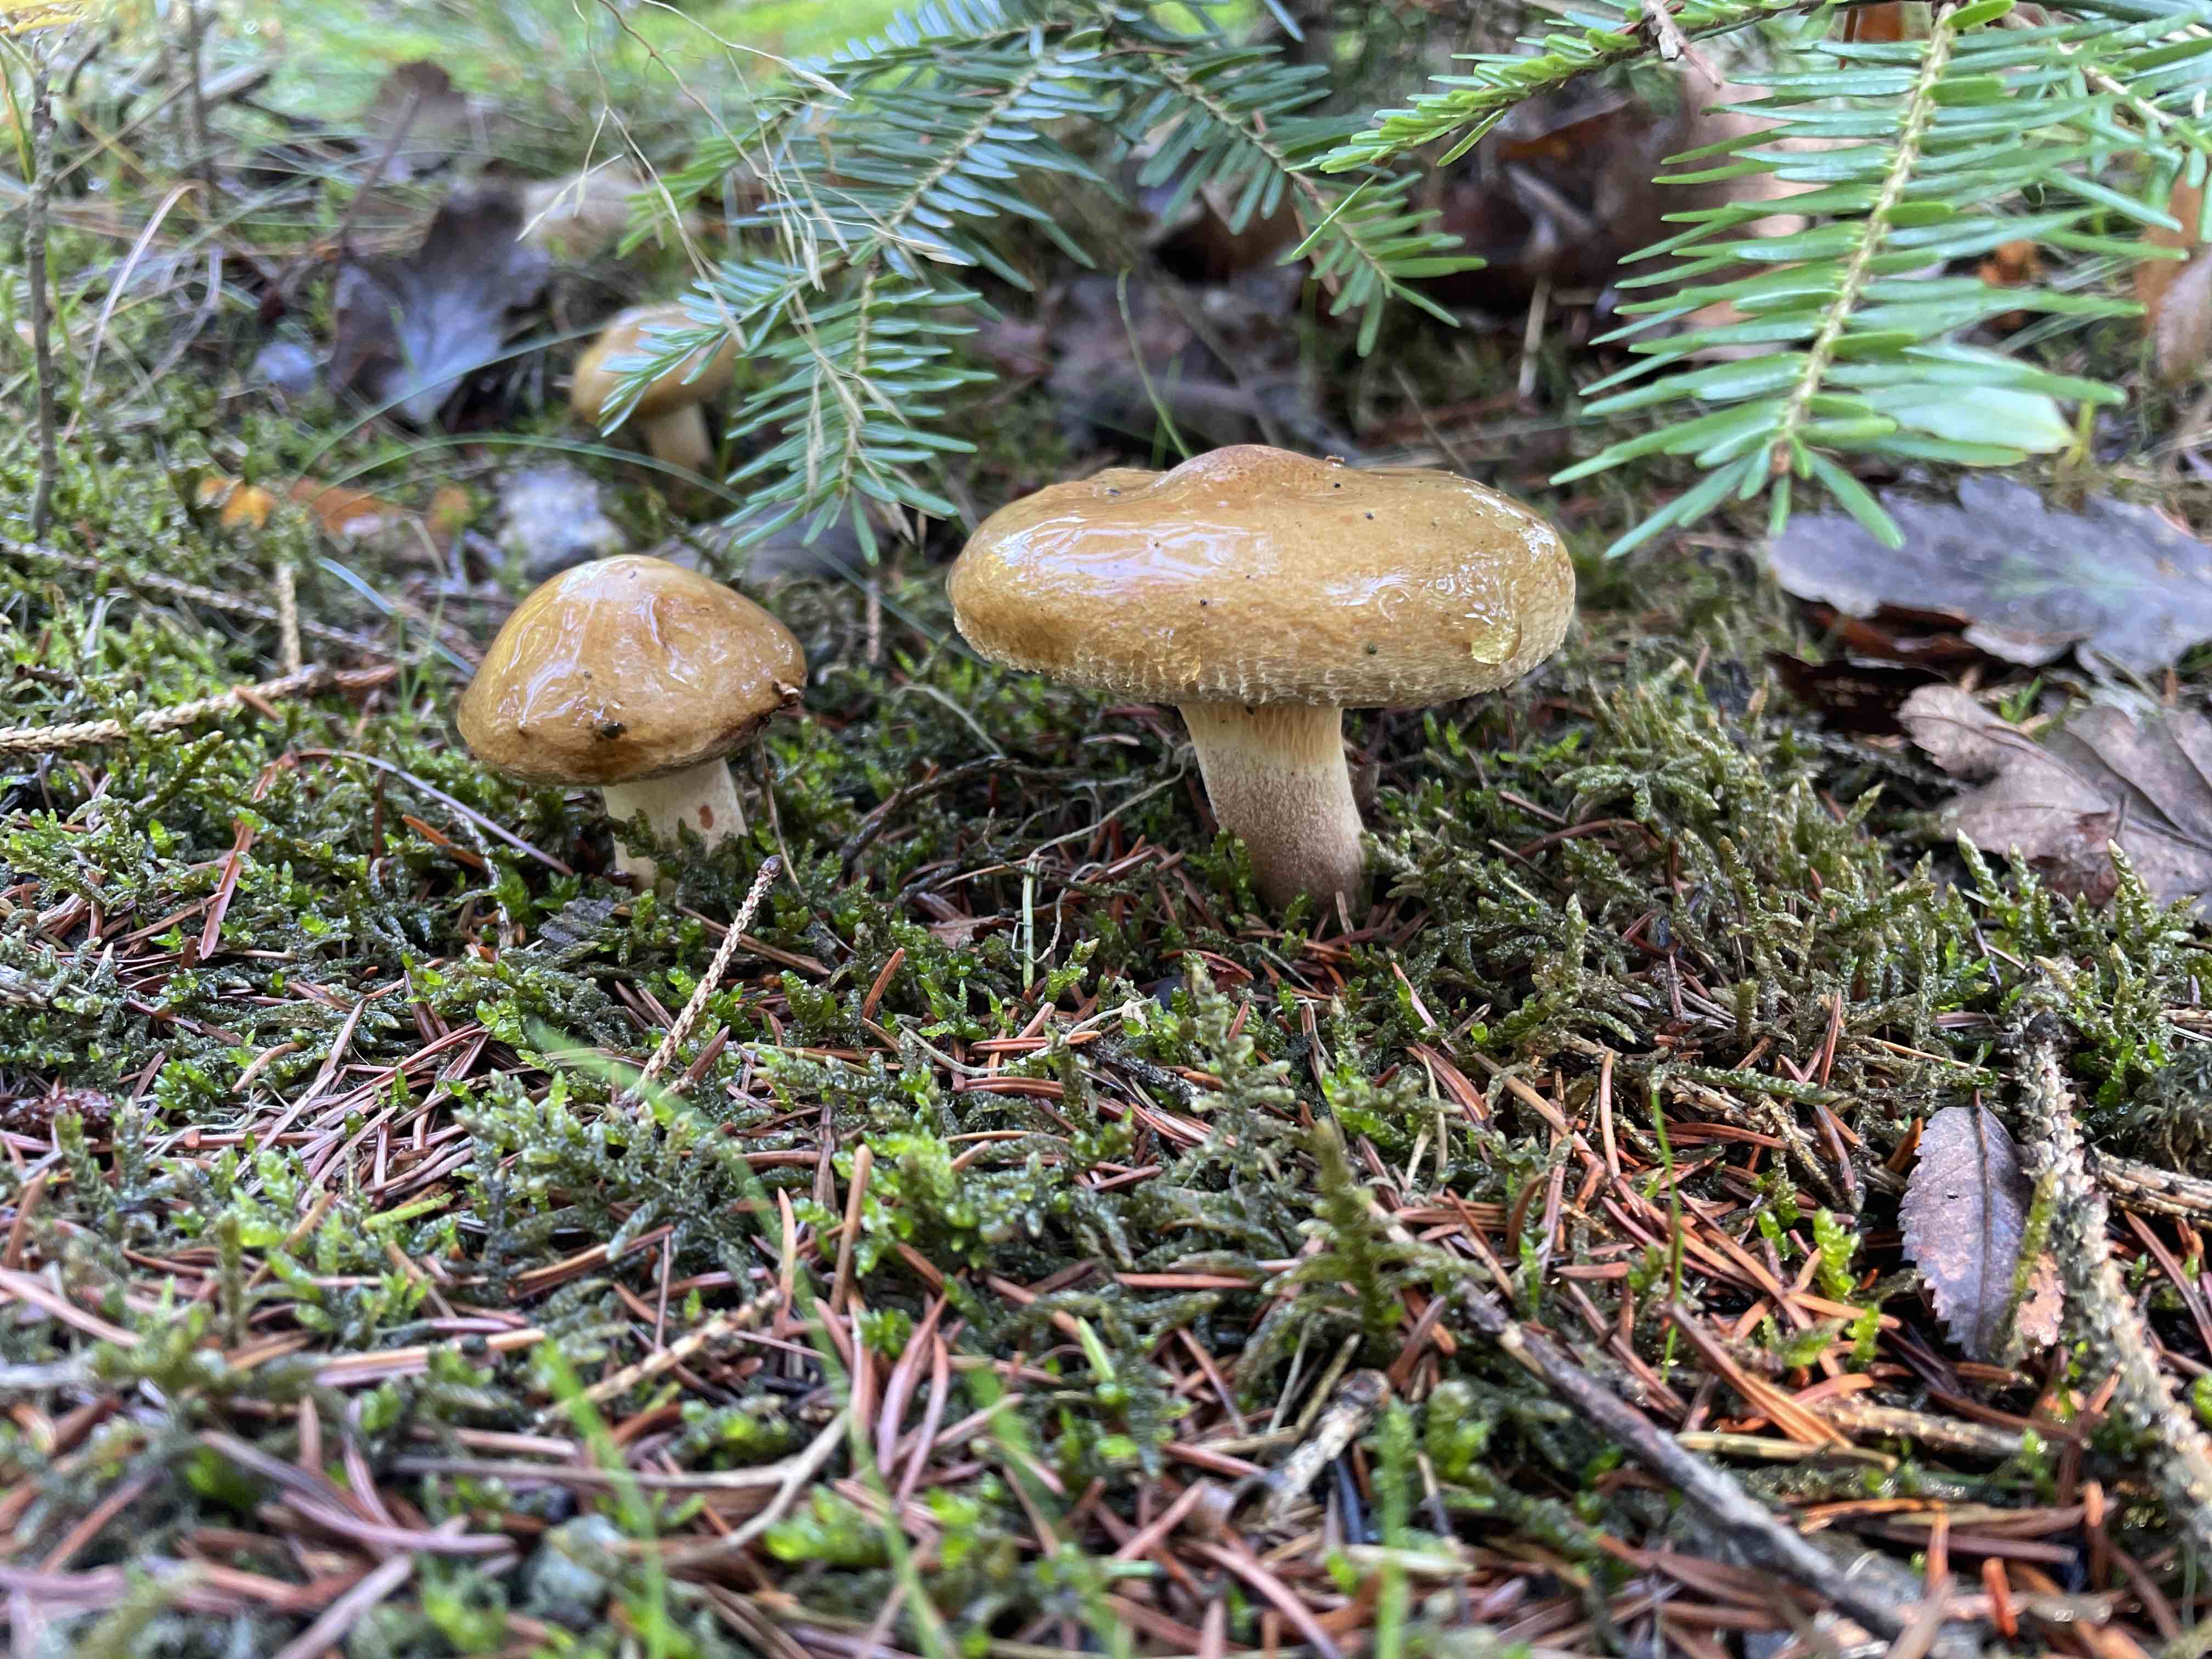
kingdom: Fungi
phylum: Basidiomycota
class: Agaricomycetes
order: Boletales
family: Paxillaceae
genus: Paxillus
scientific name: Paxillus involutus
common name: almindelig netbladhat
